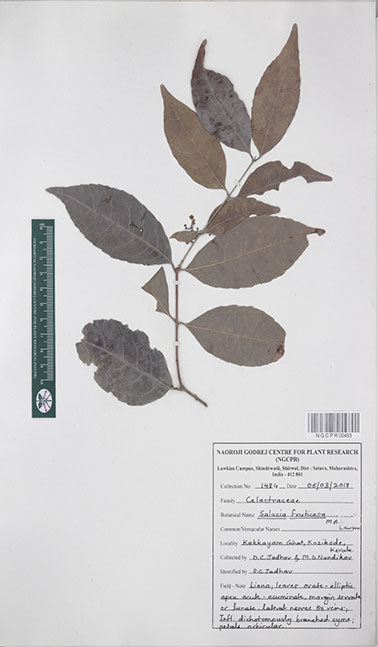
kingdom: Plantae
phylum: Tracheophyta
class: Magnoliopsida
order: Celastrales
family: Celastraceae
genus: Salacia
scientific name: Salacia fruticosa
